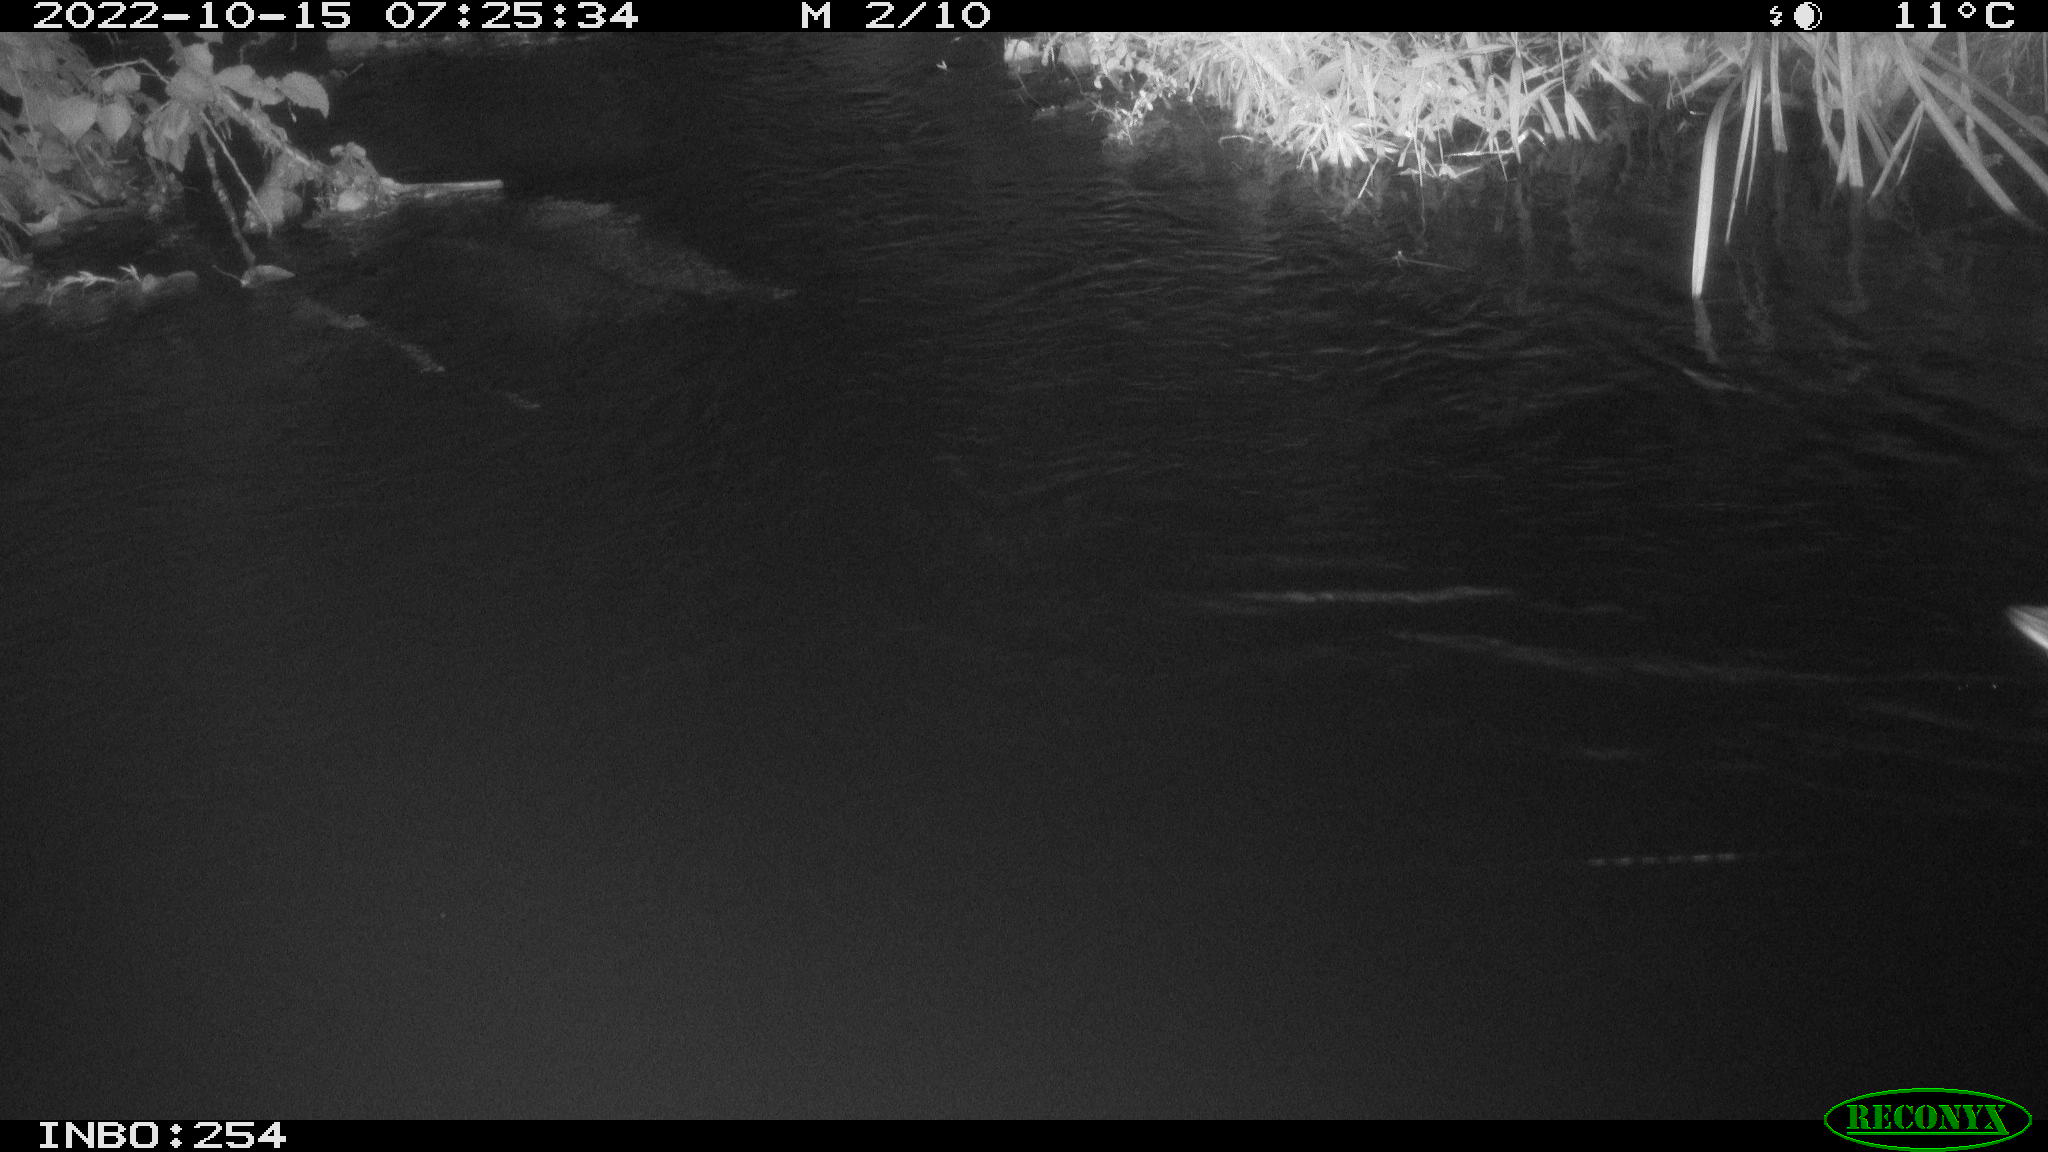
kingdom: Animalia
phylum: Chordata
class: Aves
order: Anseriformes
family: Anatidae
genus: Anas
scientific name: Anas
